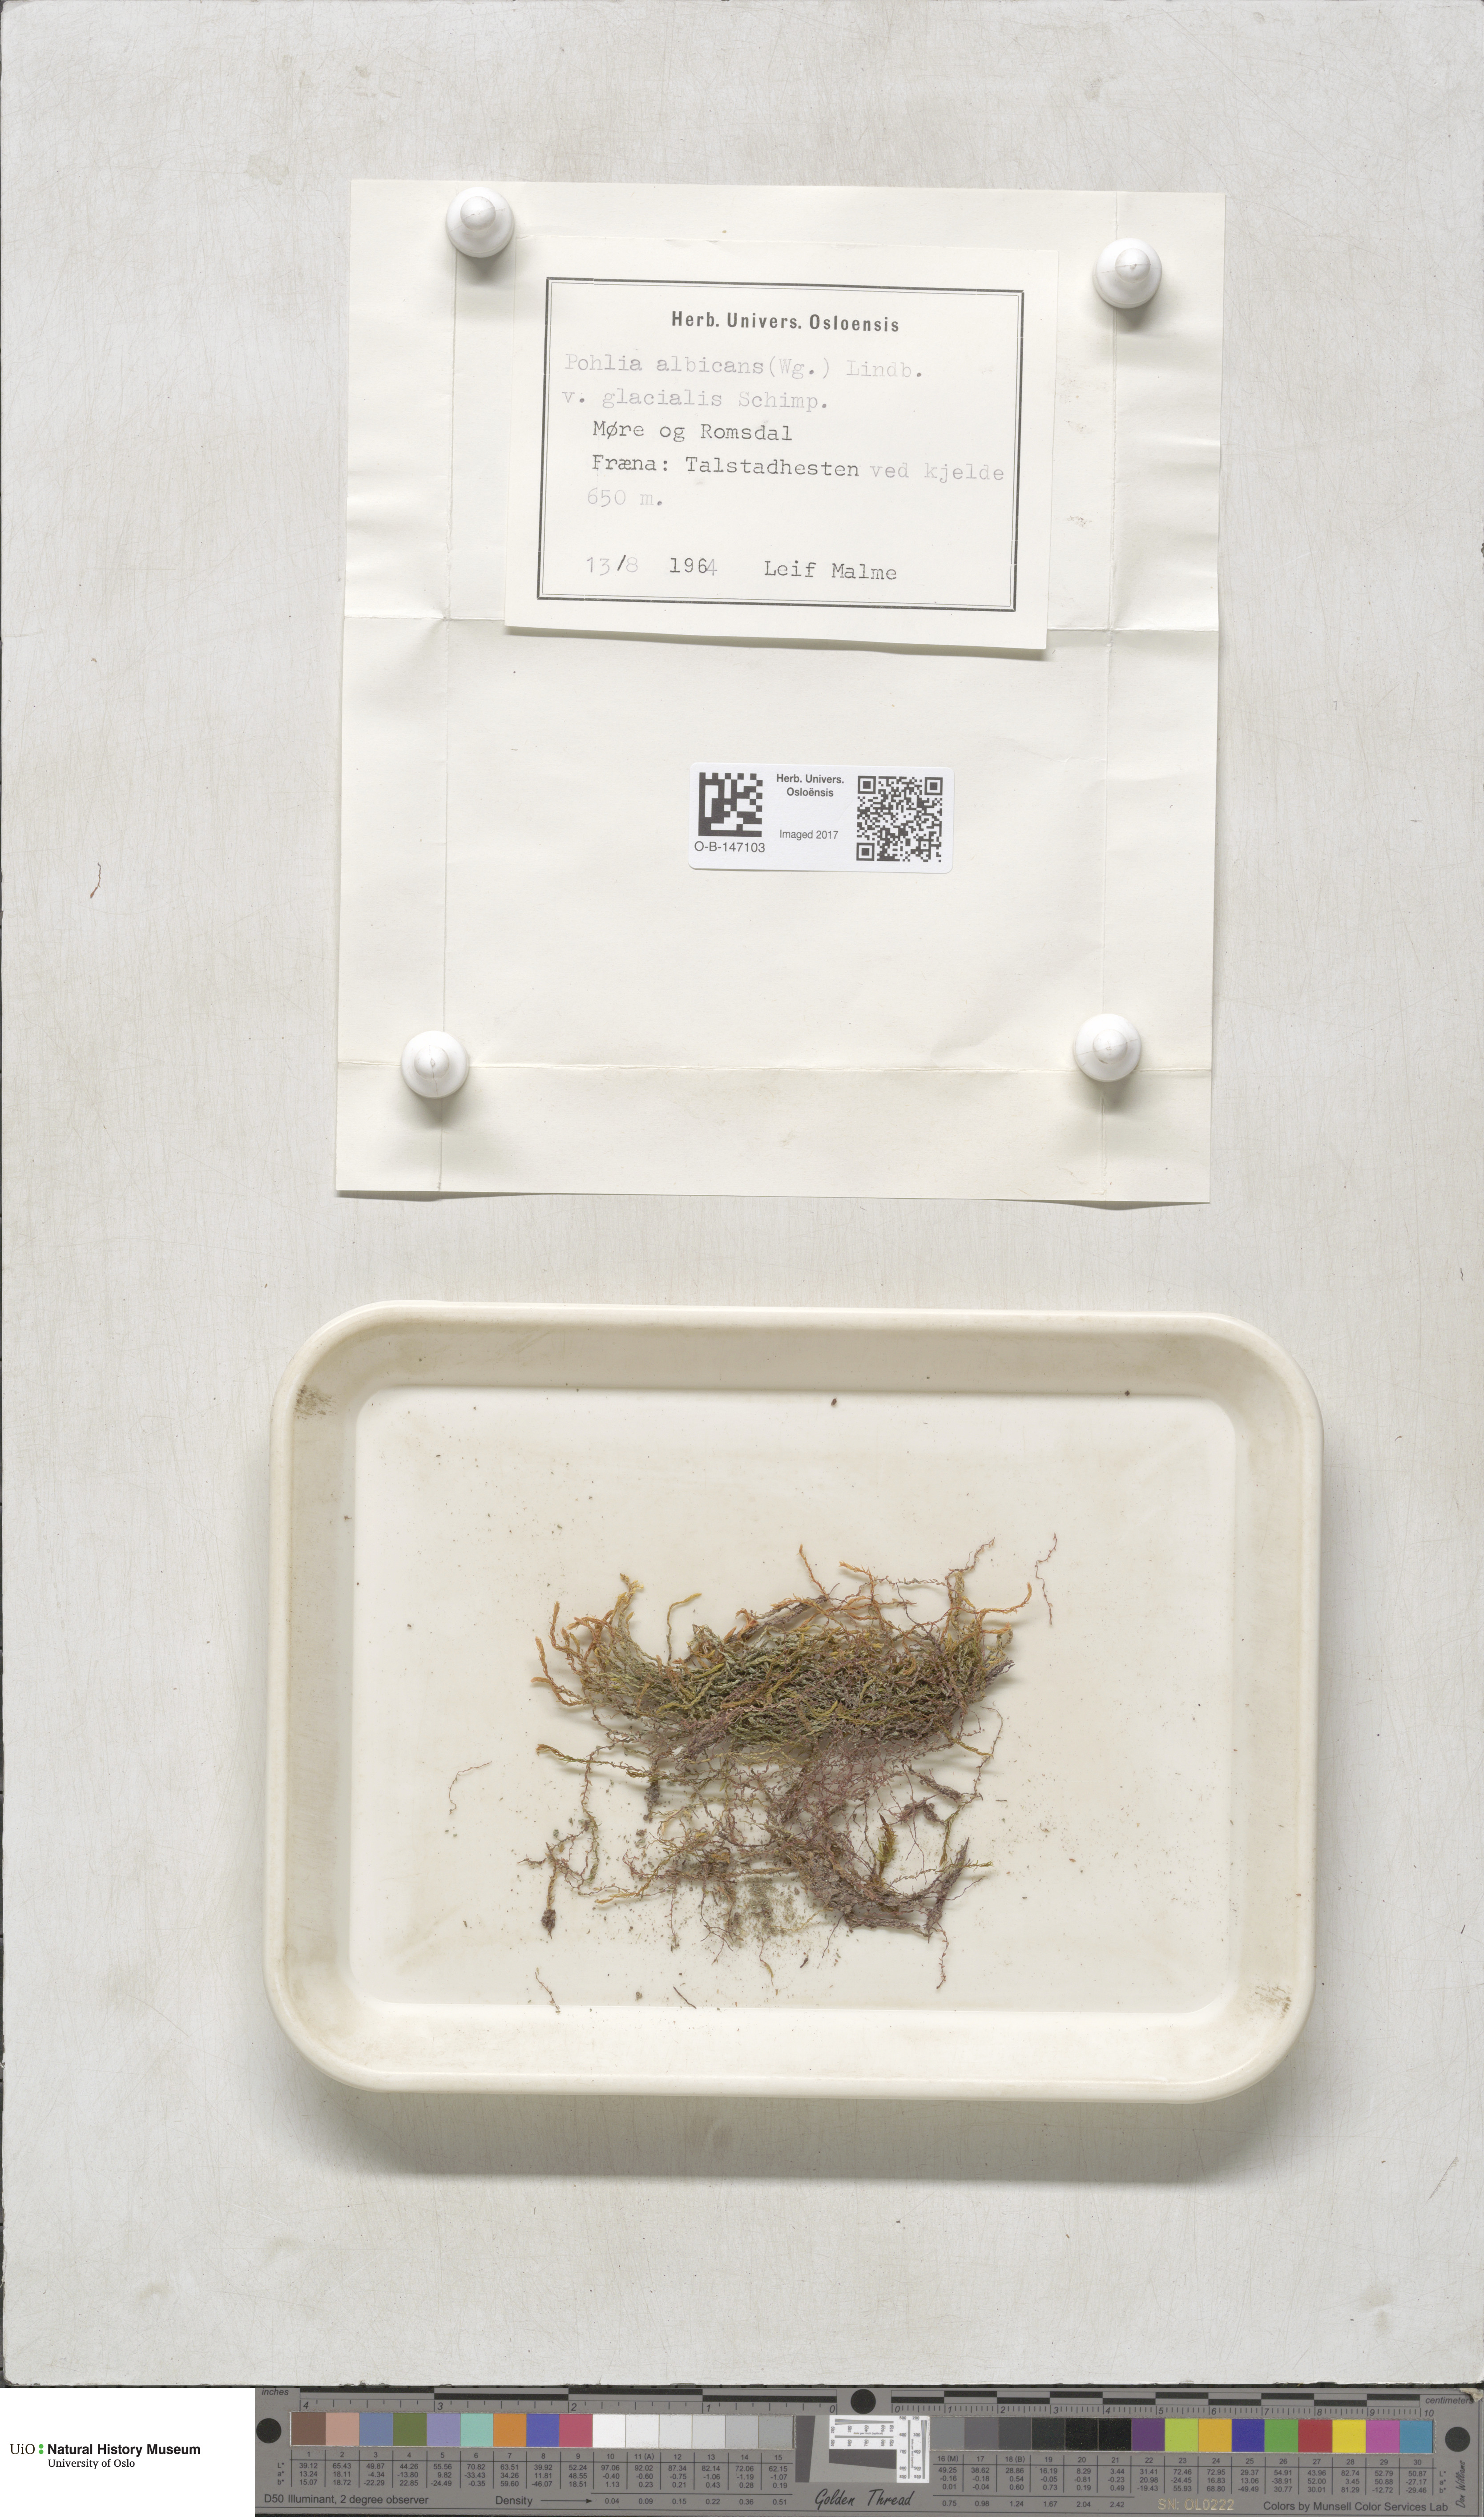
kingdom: Plantae
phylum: Bryophyta
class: Bryopsida
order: Bryales
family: Mniaceae
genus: Pohlia
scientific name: Pohlia wahlenbergii
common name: Wahlenberg's nodding moss
